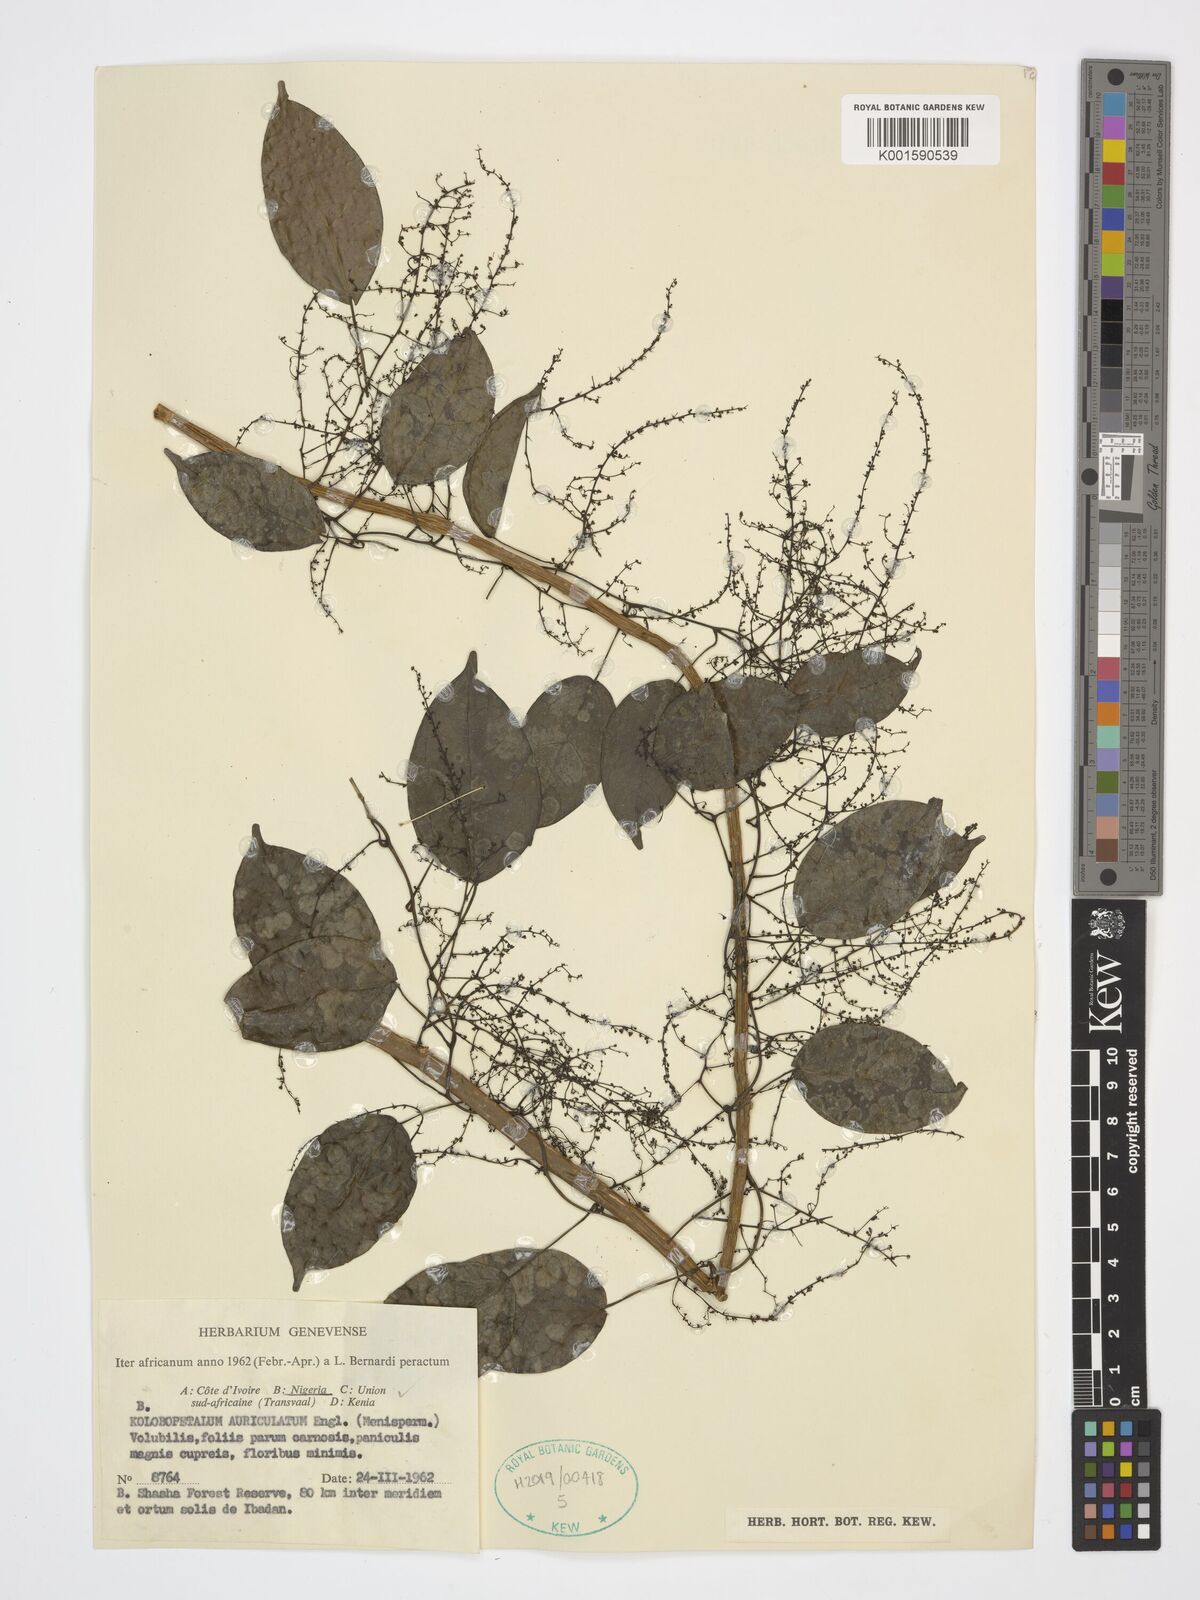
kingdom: Plantae
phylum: Tracheophyta
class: Magnoliopsida
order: Ranunculales
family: Menispermaceae
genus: Kolobopetalum
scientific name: Kolobopetalum auriculatum
